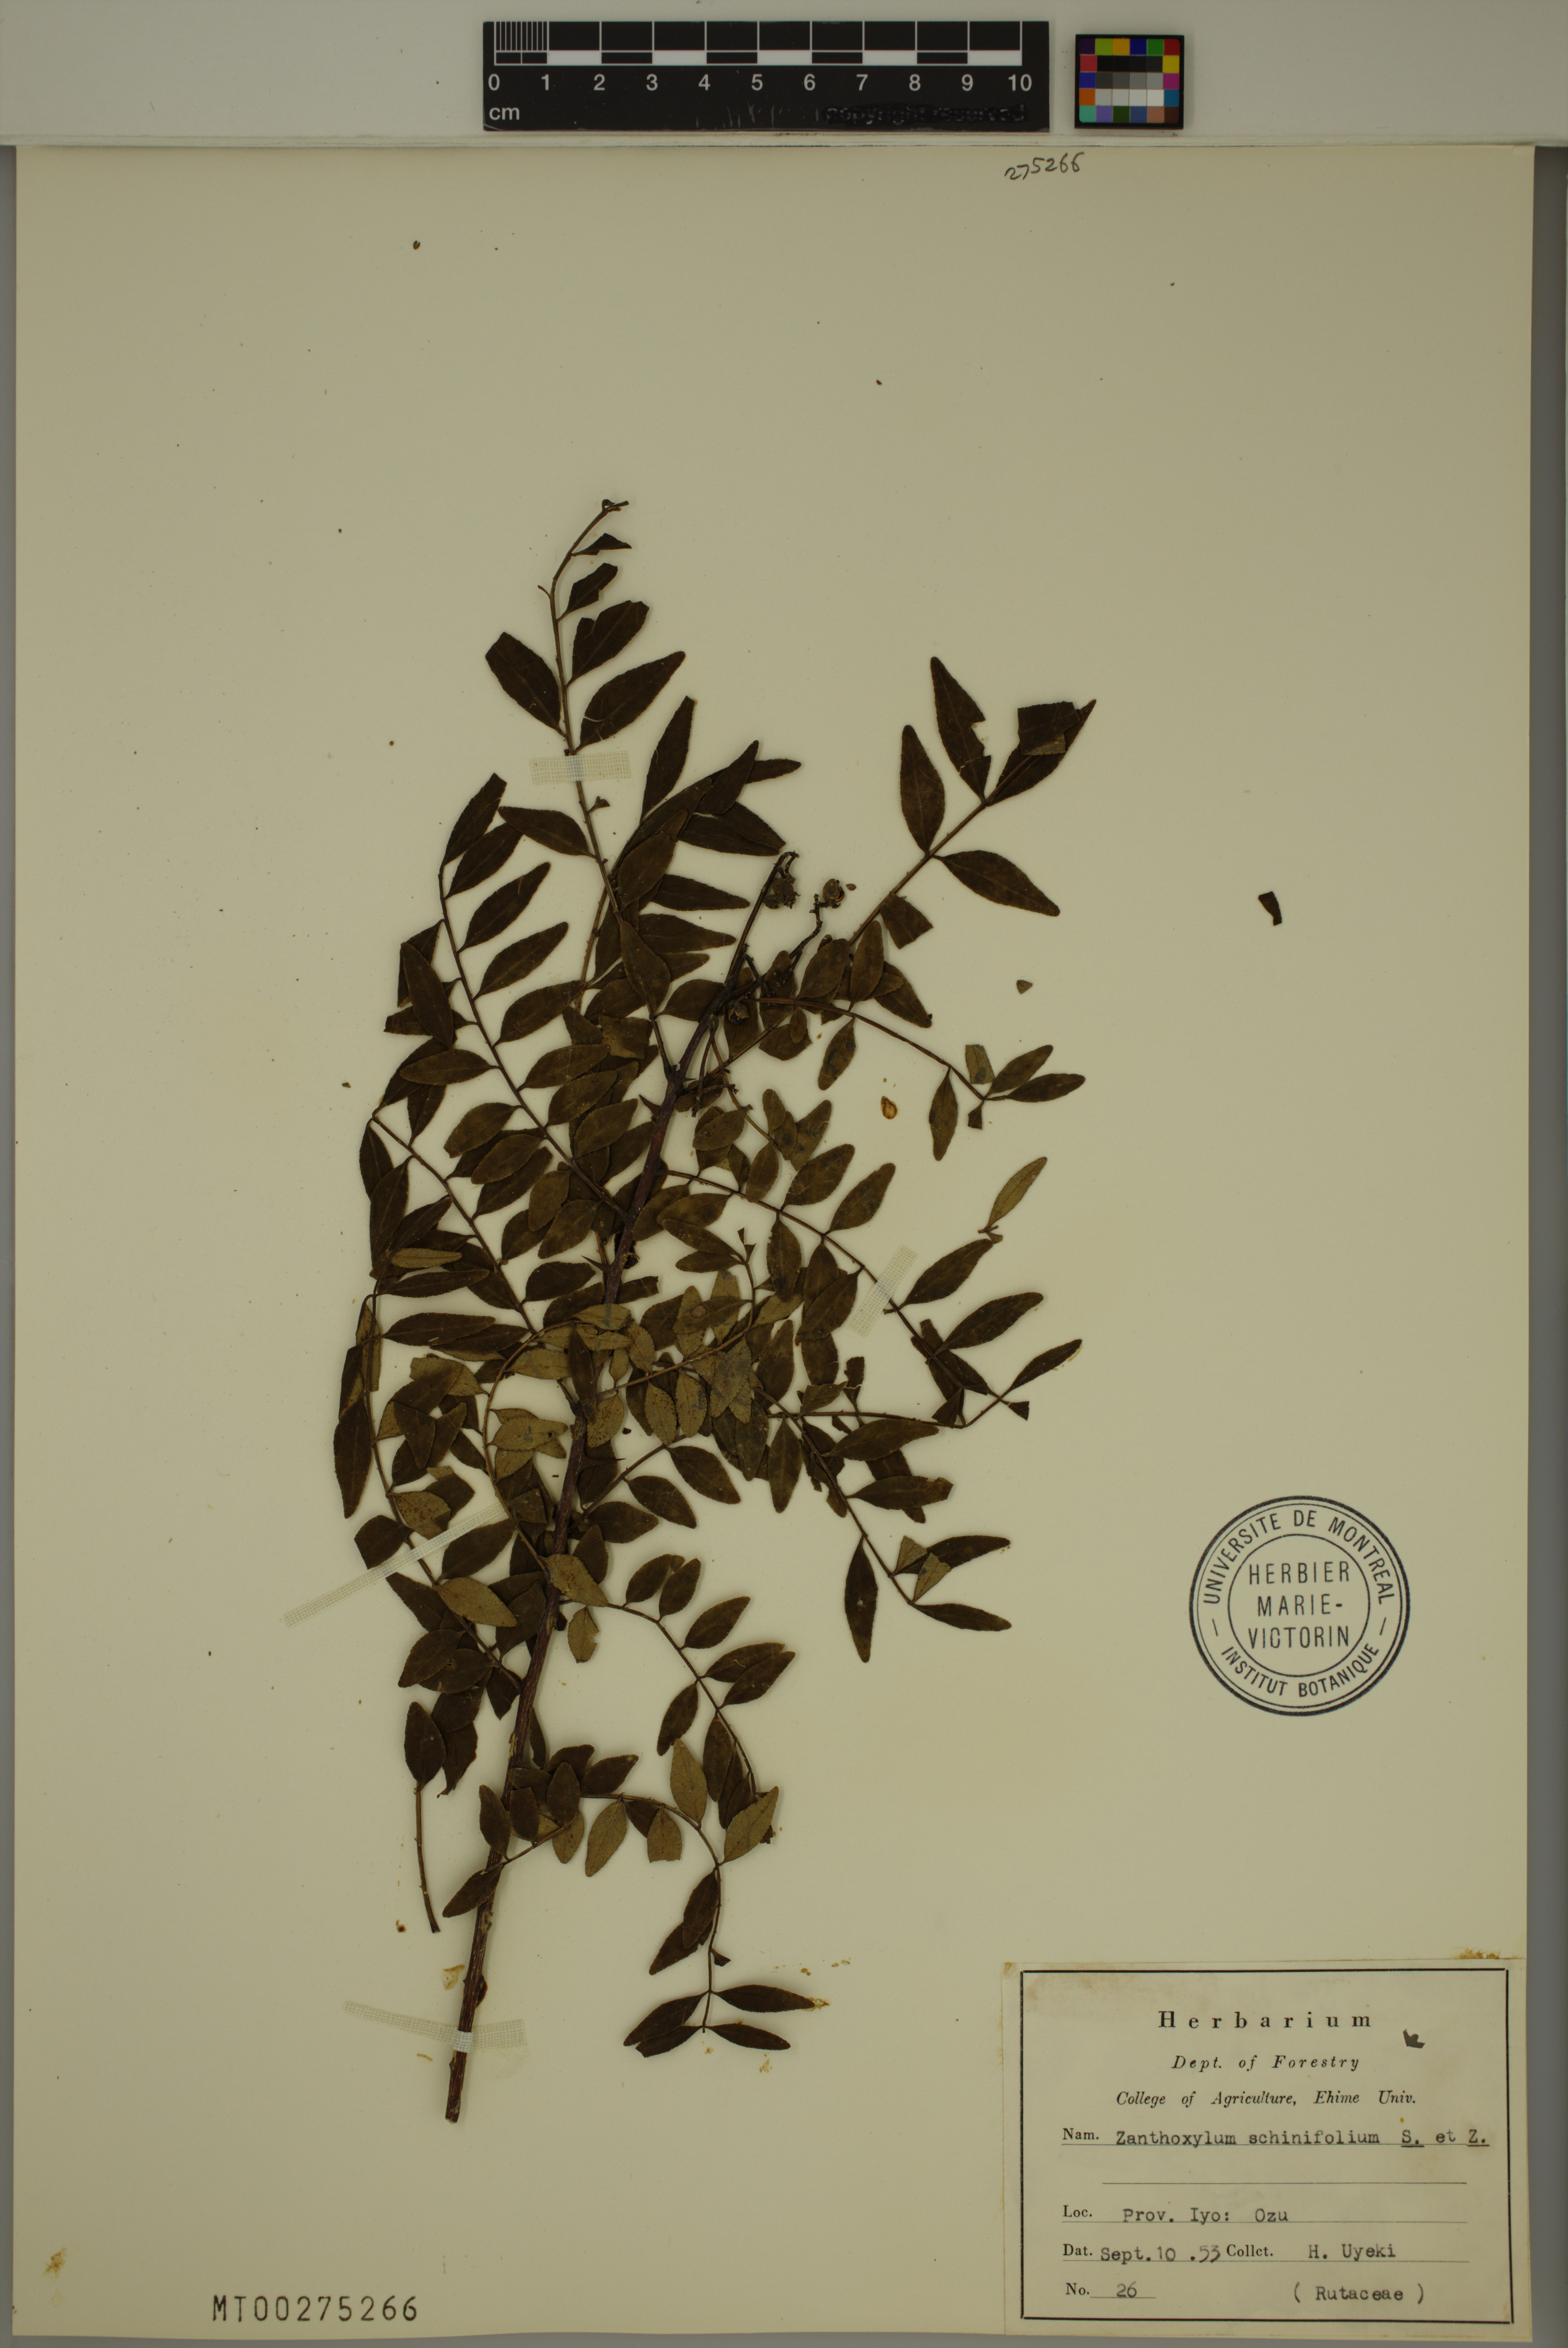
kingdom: Plantae
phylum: Tracheophyta
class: Magnoliopsida
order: Sapindales
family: Rutaceae
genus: Zanthoxylum
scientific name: Zanthoxylum schinifolium
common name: Sichuan-pepper
